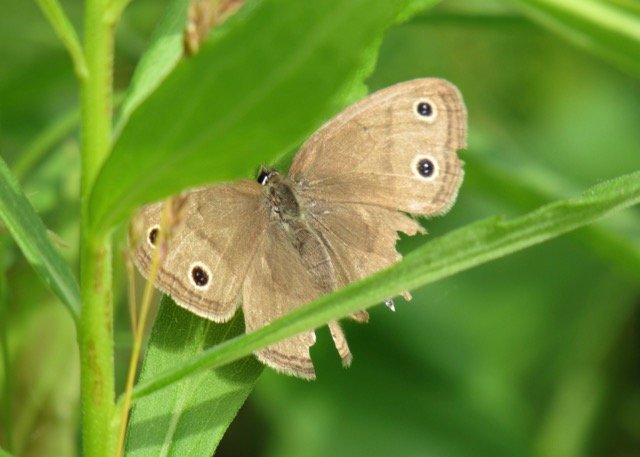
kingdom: Animalia
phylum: Arthropoda
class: Insecta
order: Lepidoptera
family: Nymphalidae
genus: Euptychia
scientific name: Euptychia cymela
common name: Little Wood Satyr
